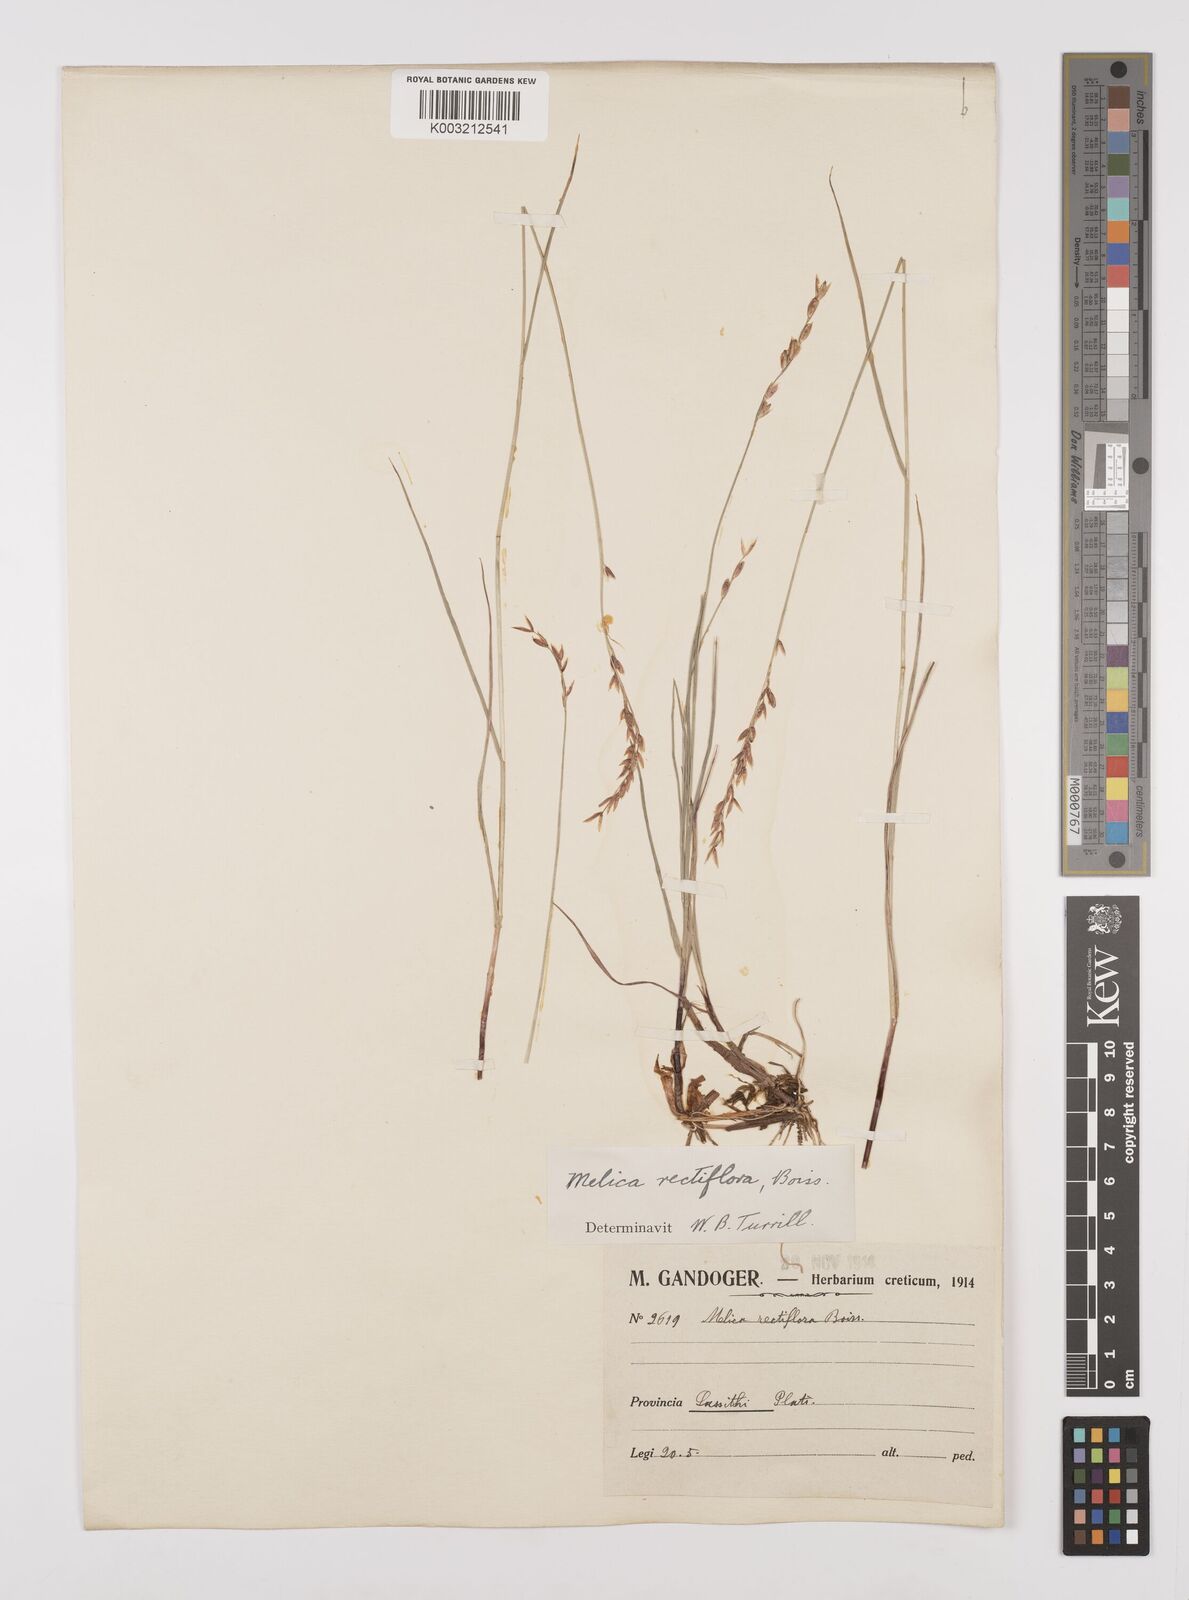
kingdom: Plantae
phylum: Tracheophyta
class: Liliopsida
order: Poales
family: Poaceae
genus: Melica
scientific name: Melica rectiflora
